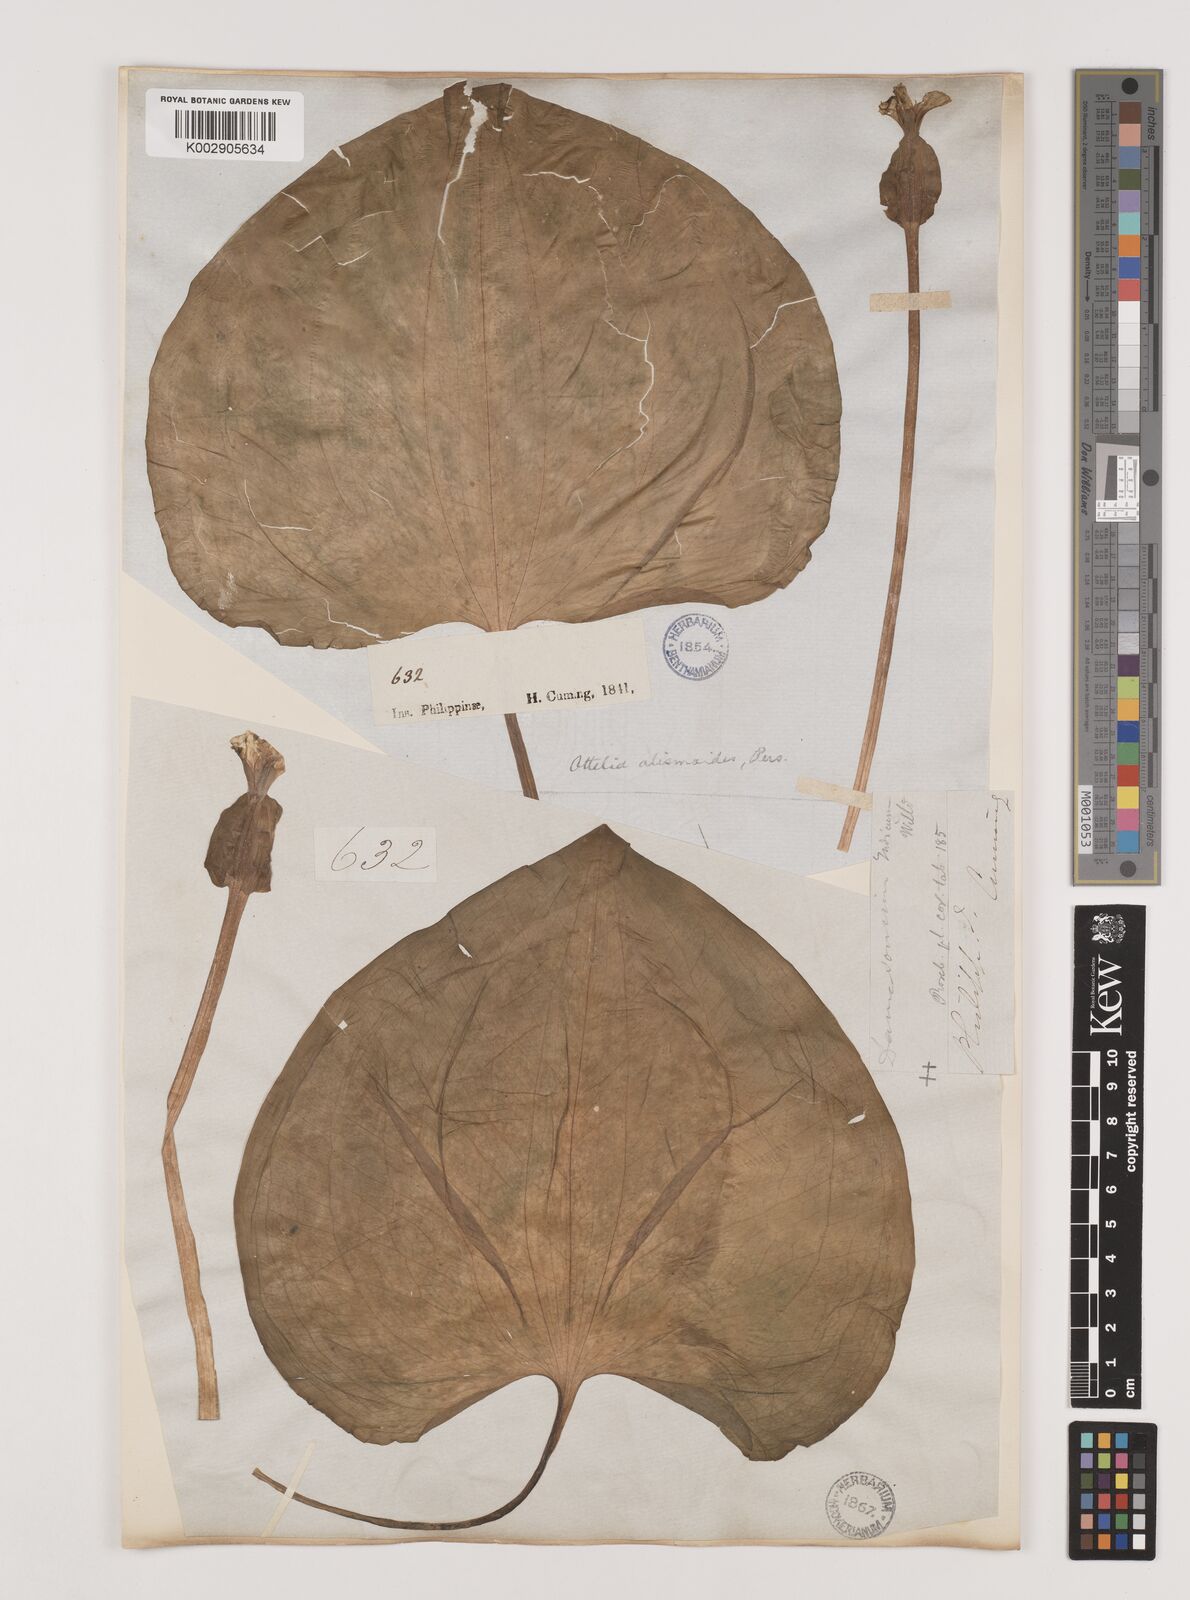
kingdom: Plantae
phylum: Tracheophyta
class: Liliopsida
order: Alismatales
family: Hydrocharitaceae
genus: Ottelia
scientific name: Ottelia alismoides
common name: Duck-lettuce
